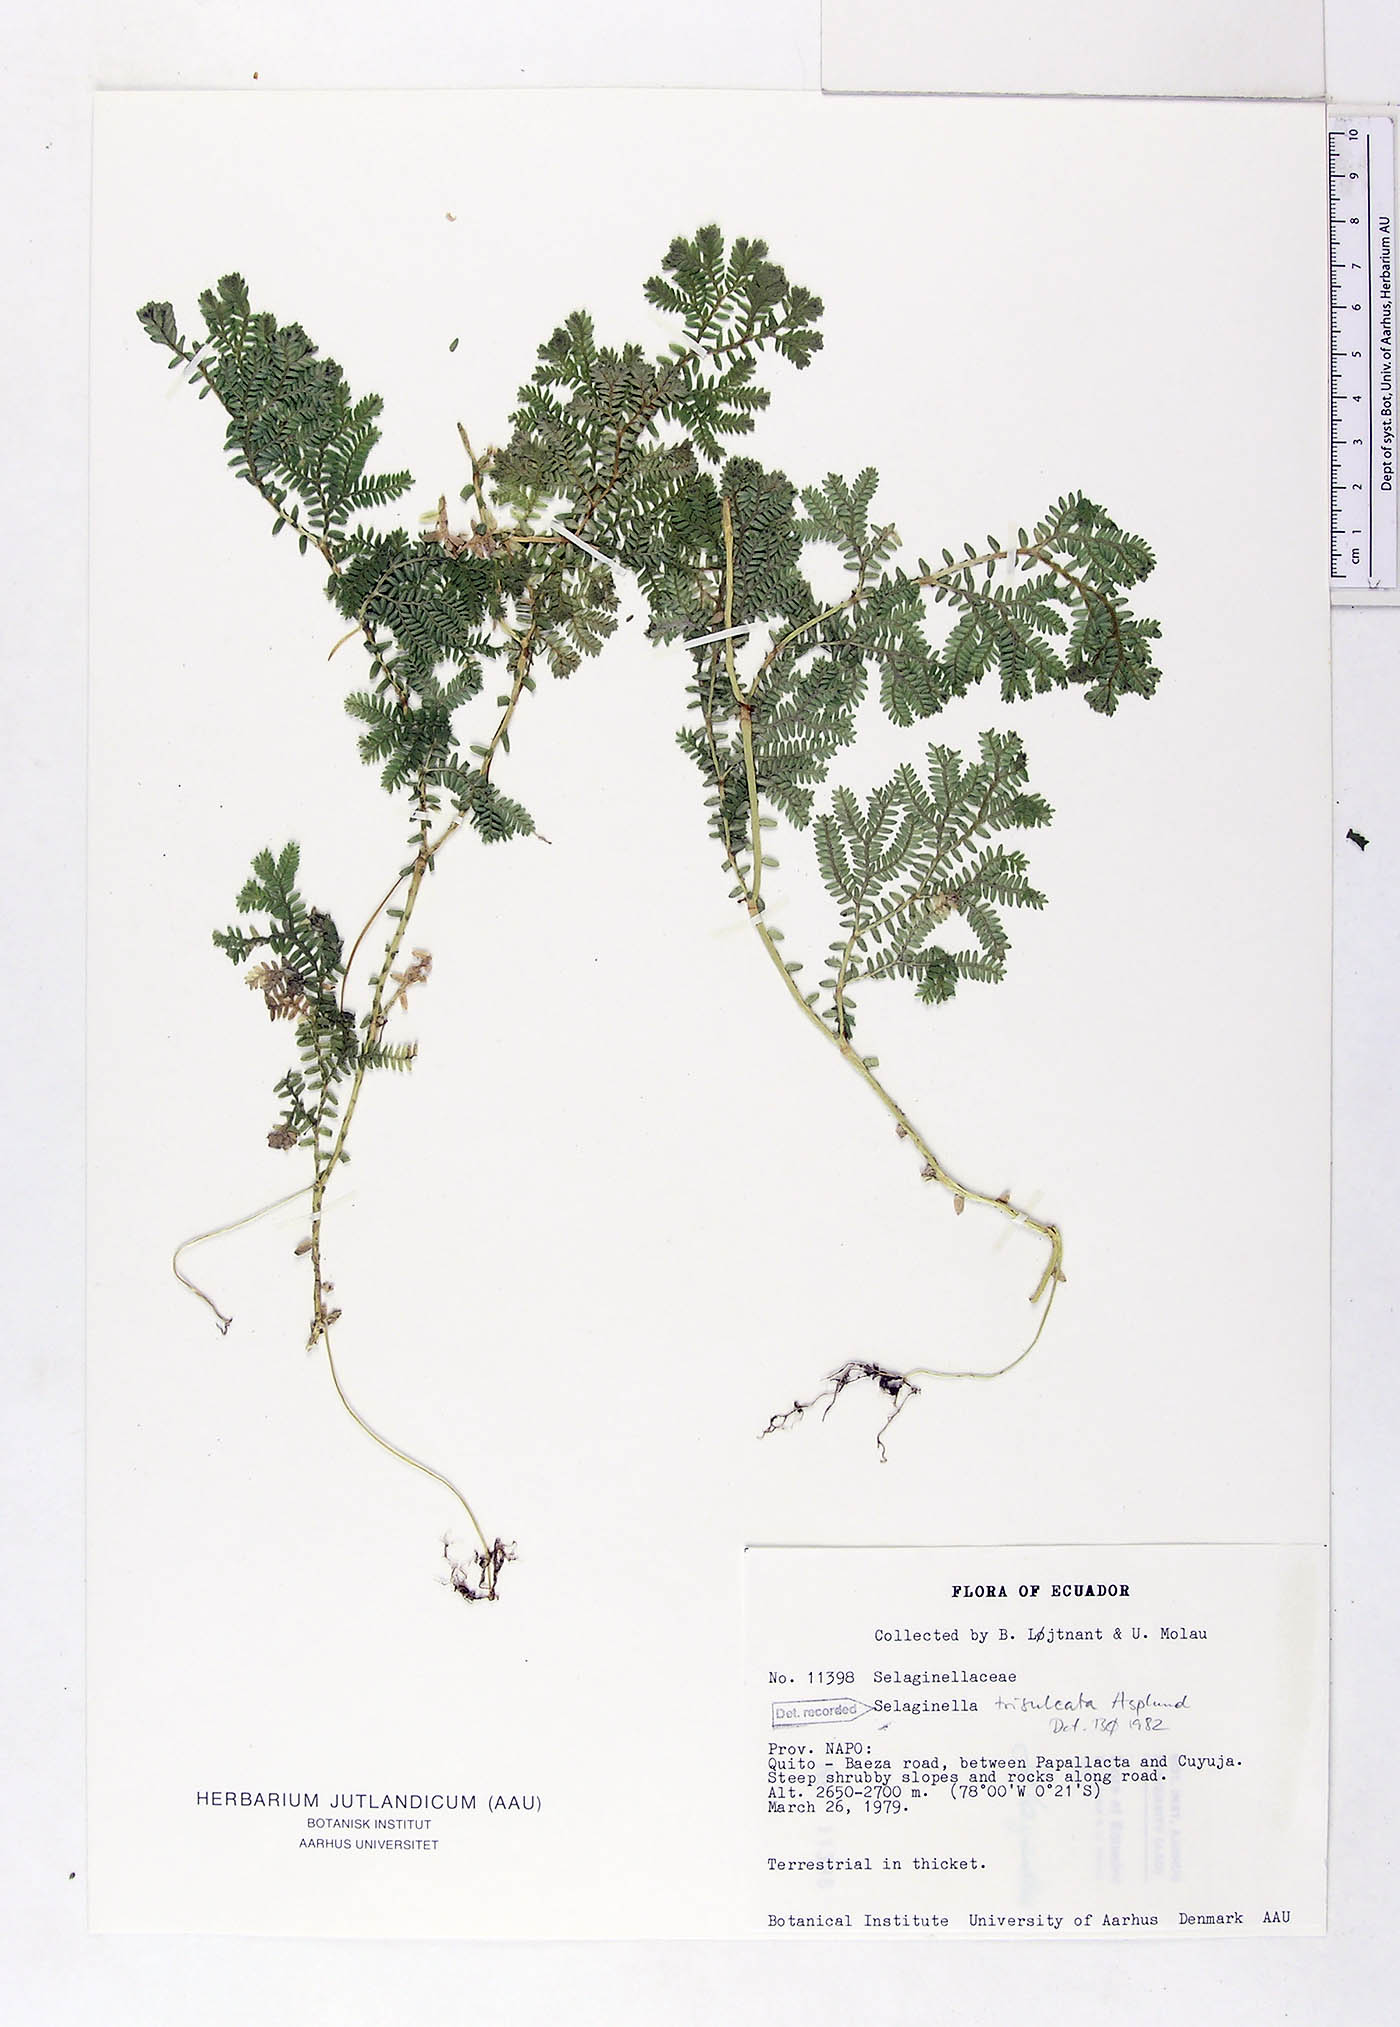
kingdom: Plantae
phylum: Tracheophyta
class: Lycopodiopsida
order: Selaginellales
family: Selaginellaceae
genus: Selaginella
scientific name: Selaginella trisulcata
